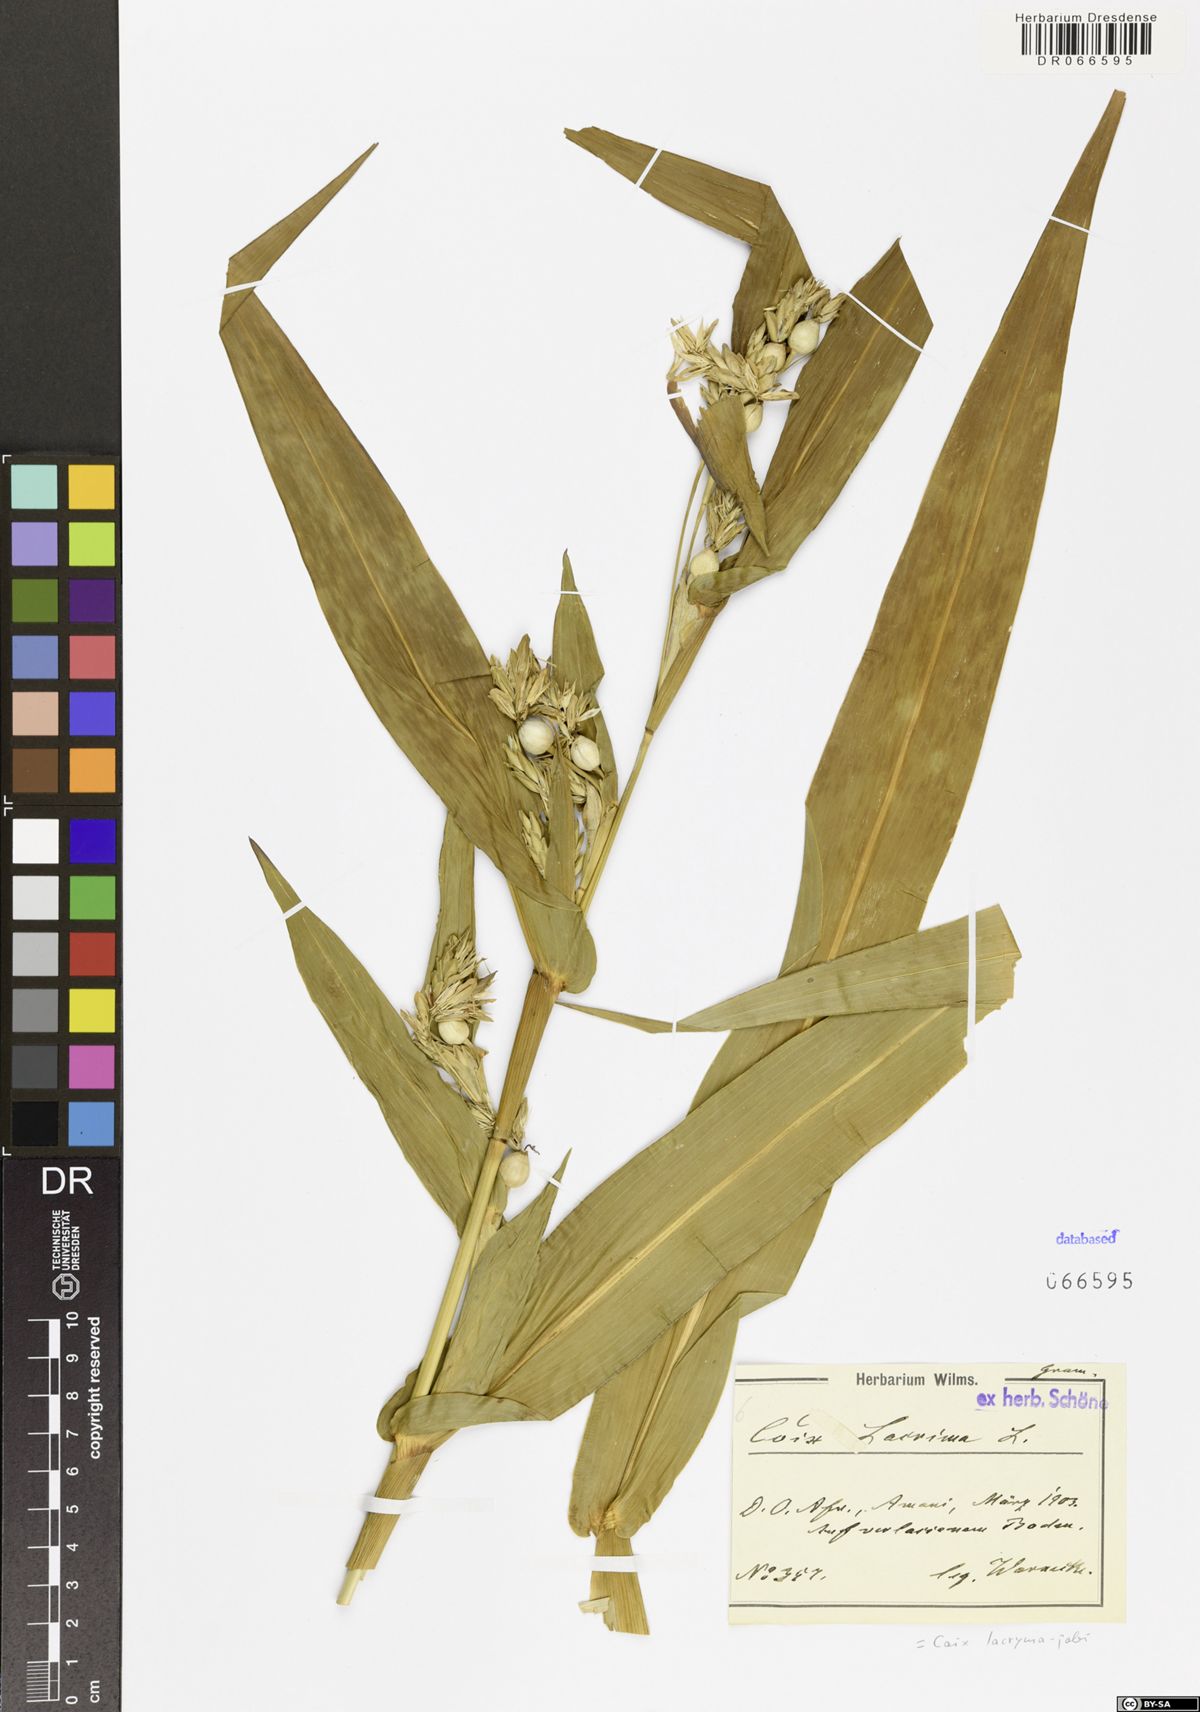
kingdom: Plantae
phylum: Tracheophyta
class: Liliopsida
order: Poales
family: Poaceae
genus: Coix
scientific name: Coix lacryma-jobi
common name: Job's tears
